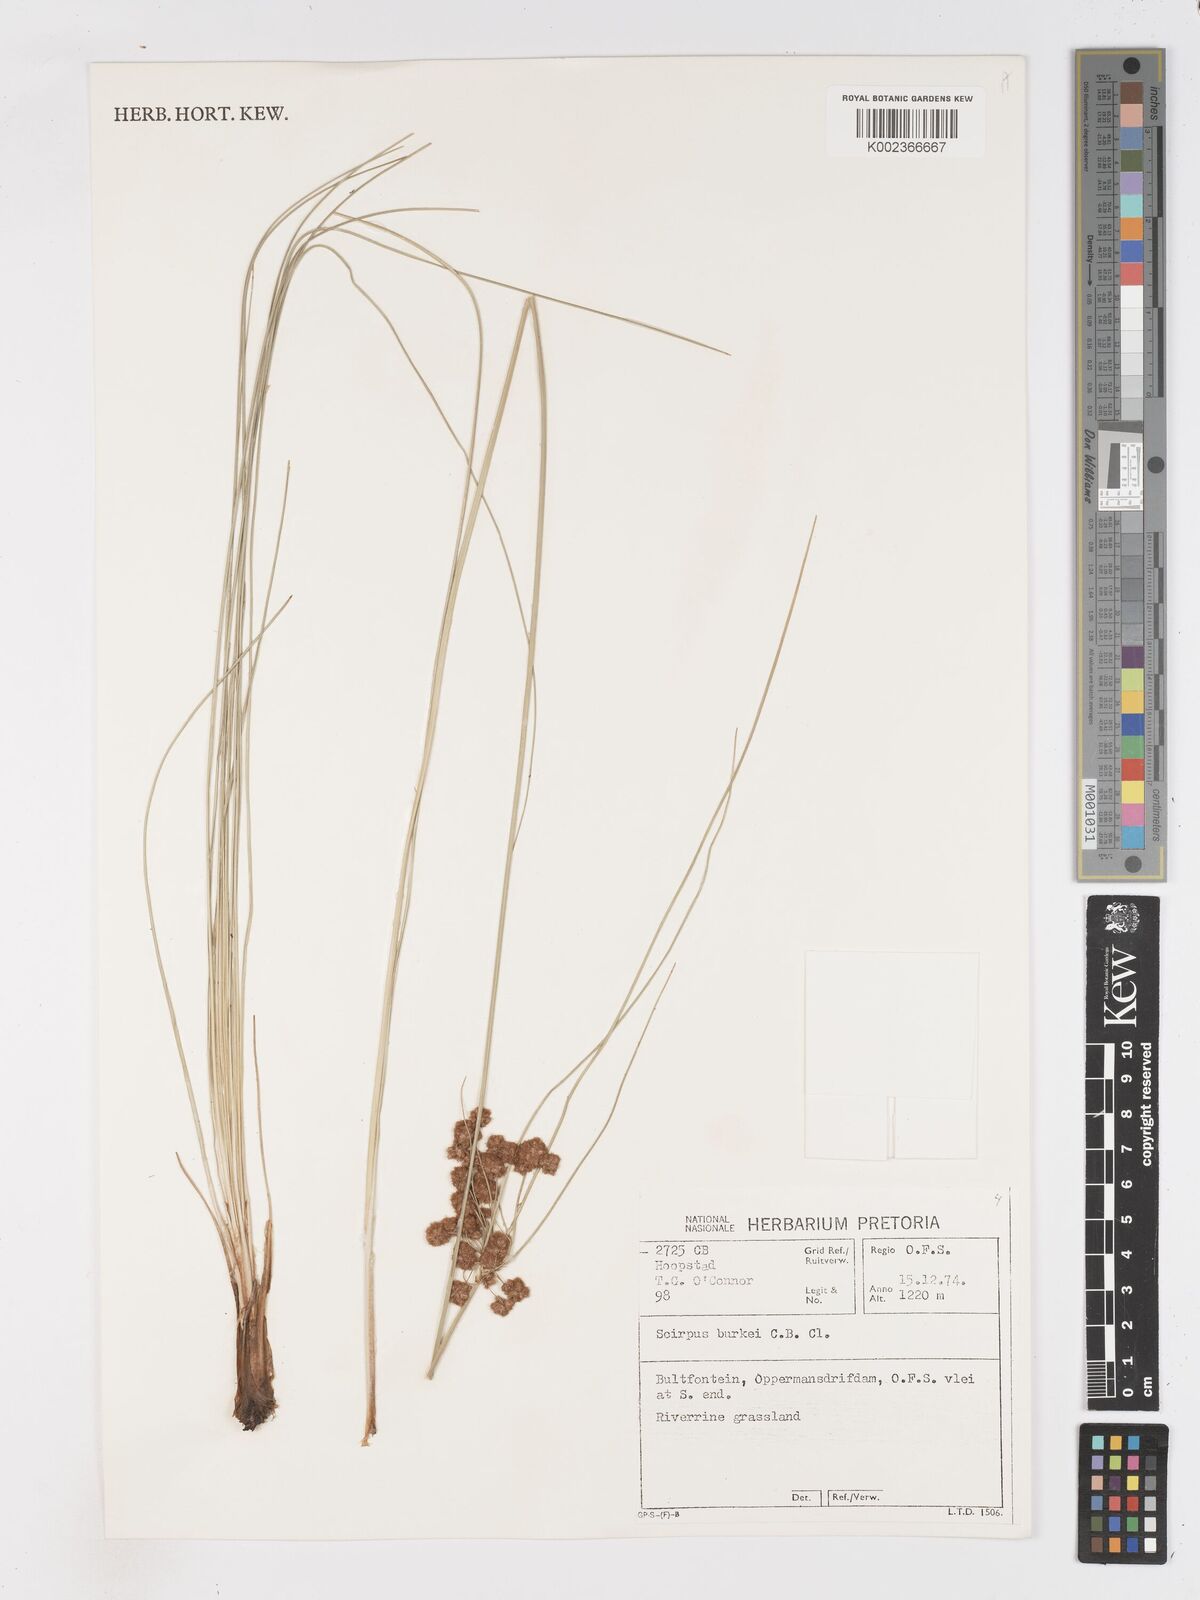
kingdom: Plantae
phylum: Tracheophyta
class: Liliopsida
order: Poales
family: Cyperaceae
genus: Scirpoides
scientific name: Scirpoides burkei
